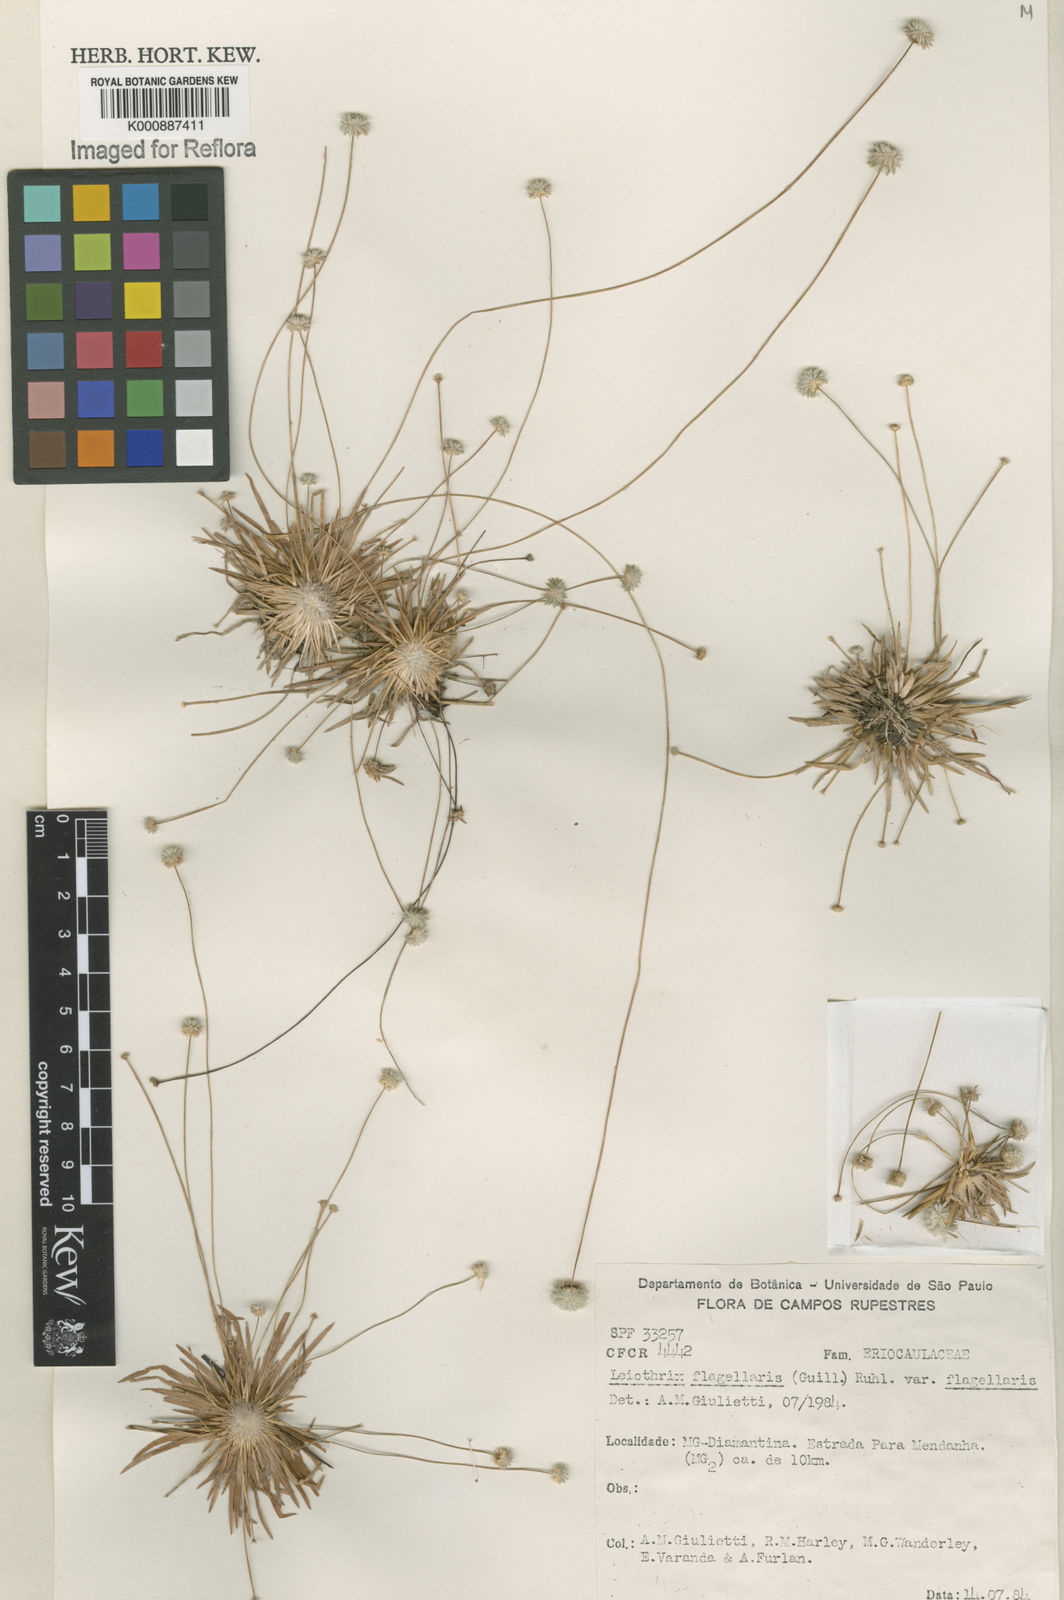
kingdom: Plantae
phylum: Tracheophyta
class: Liliopsida
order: Poales
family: Eriocaulaceae
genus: Leiothrix
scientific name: Leiothrix flagellaris
